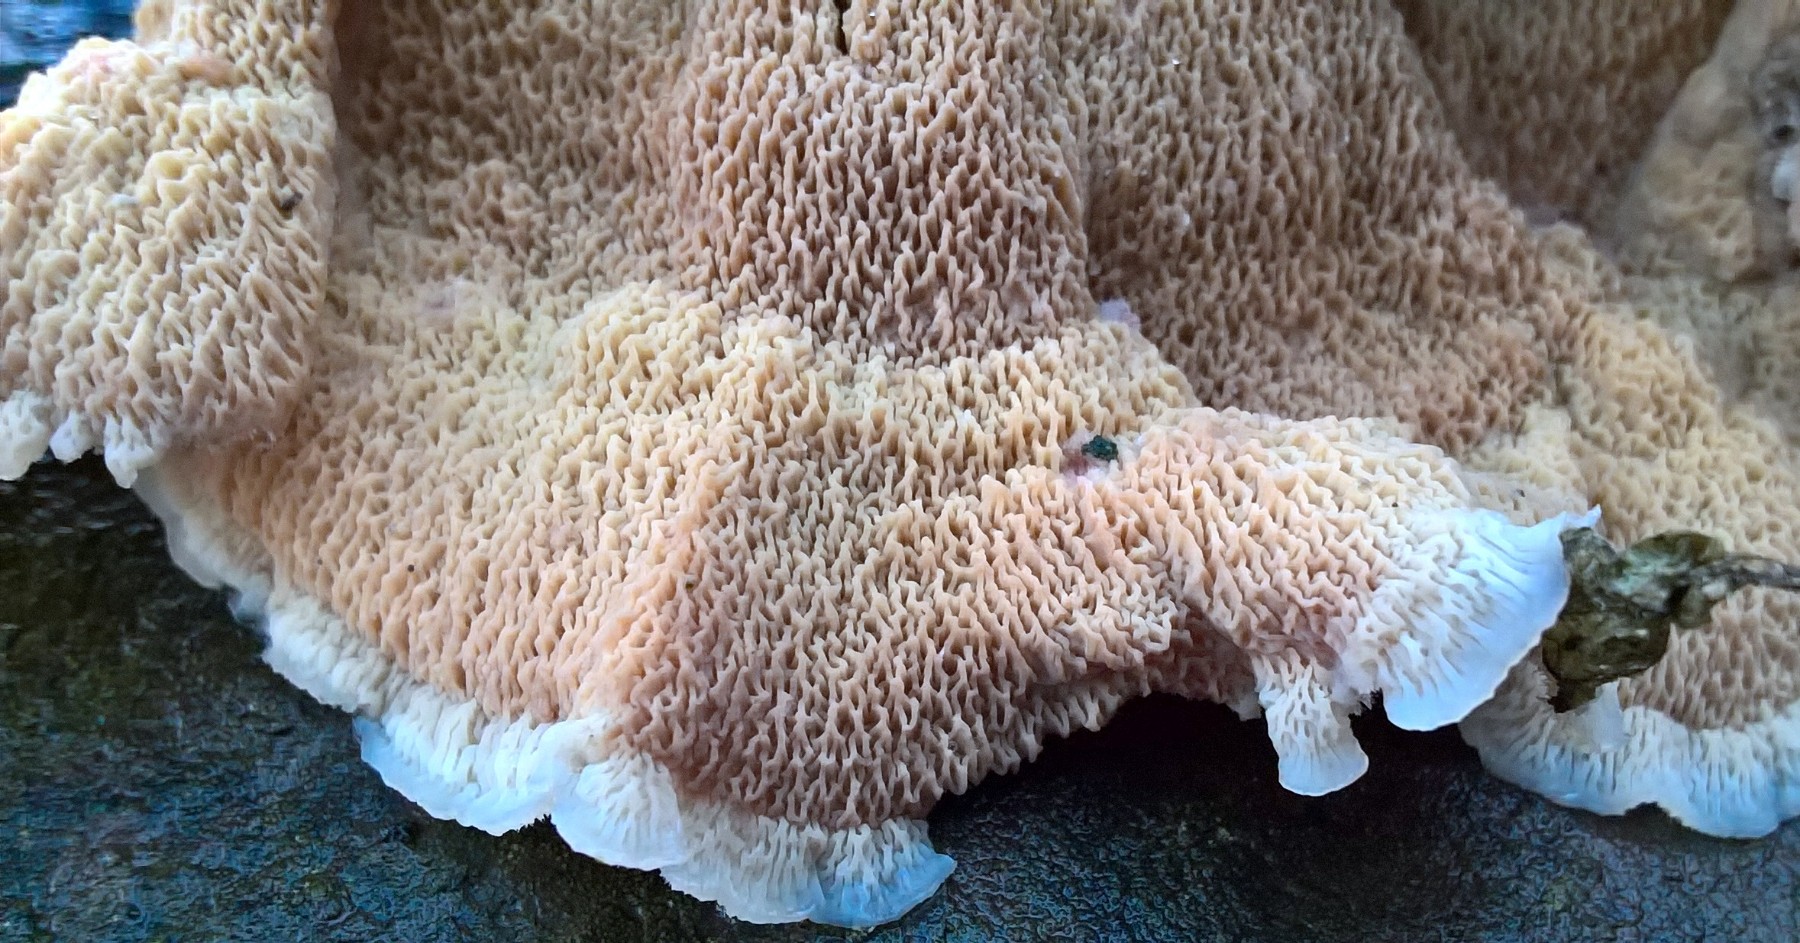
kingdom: Fungi
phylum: Basidiomycota
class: Agaricomycetes
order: Polyporales
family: Meruliaceae
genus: Phlebia
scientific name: Phlebia tremellosa
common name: bævrende åresvamp
